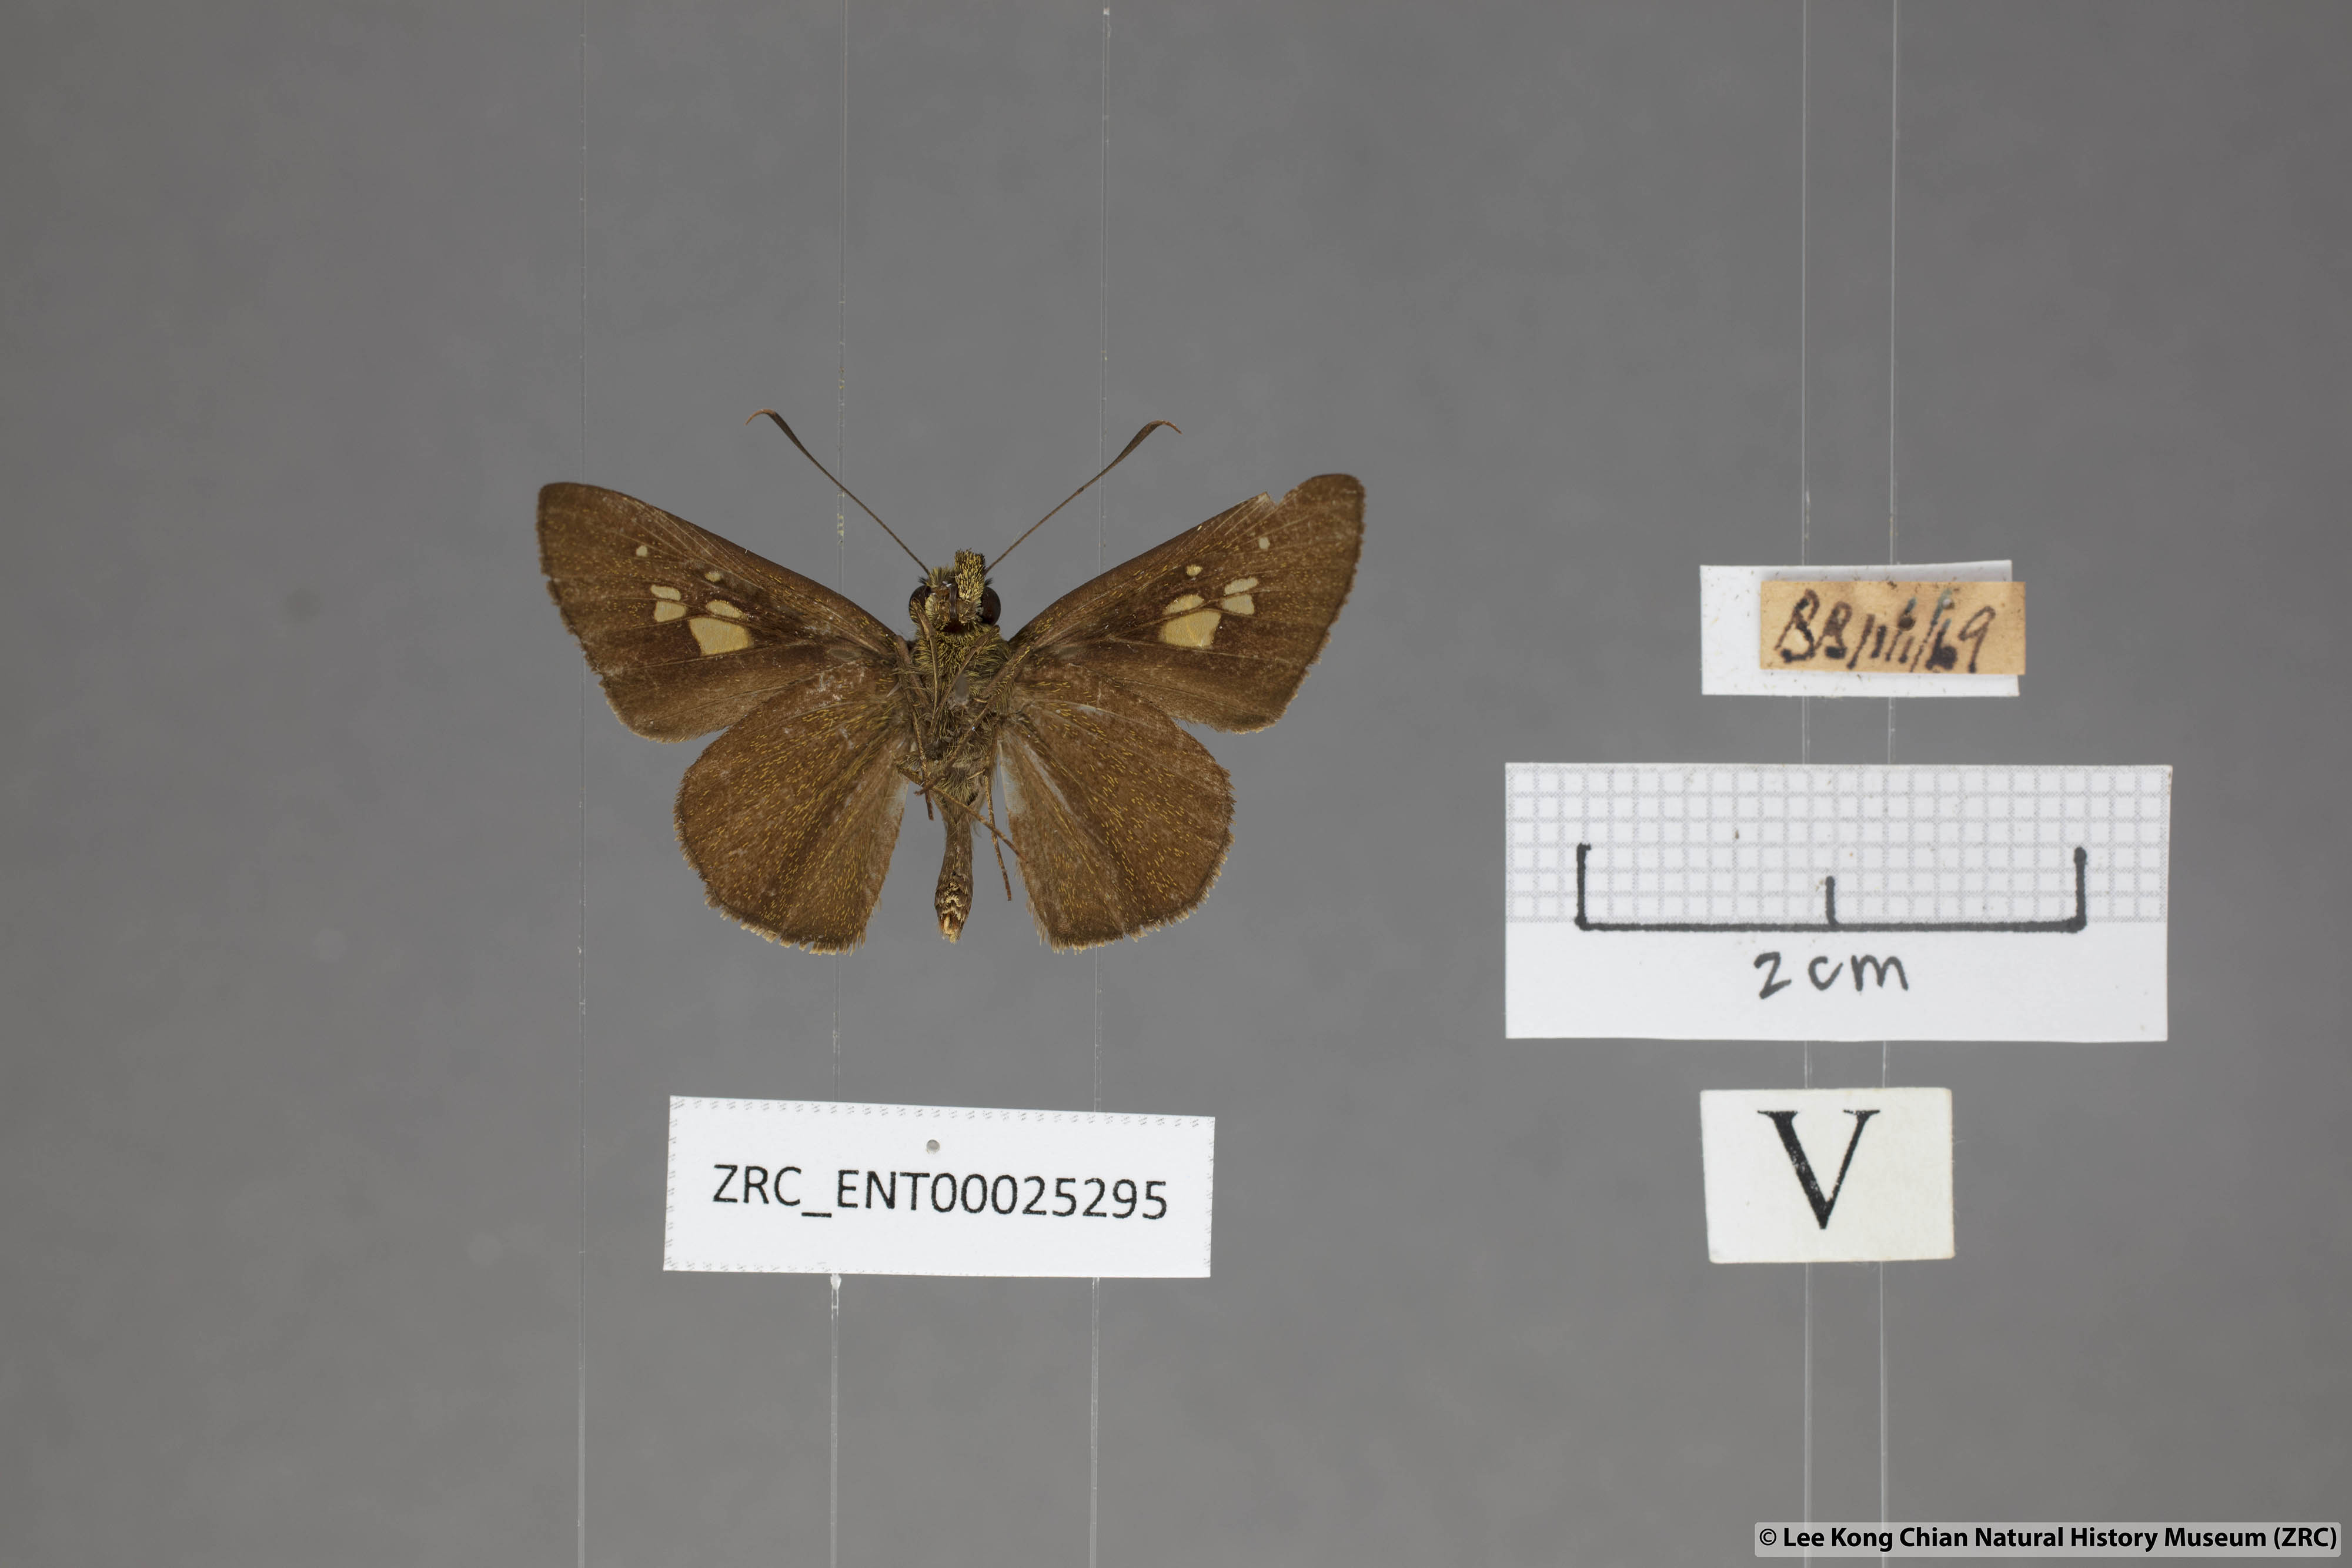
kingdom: Animalia
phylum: Arthropoda
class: Insecta
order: Lepidoptera
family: Hesperiidae
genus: Pemara
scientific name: Pemara pugnans
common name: Pugnacious lancer
